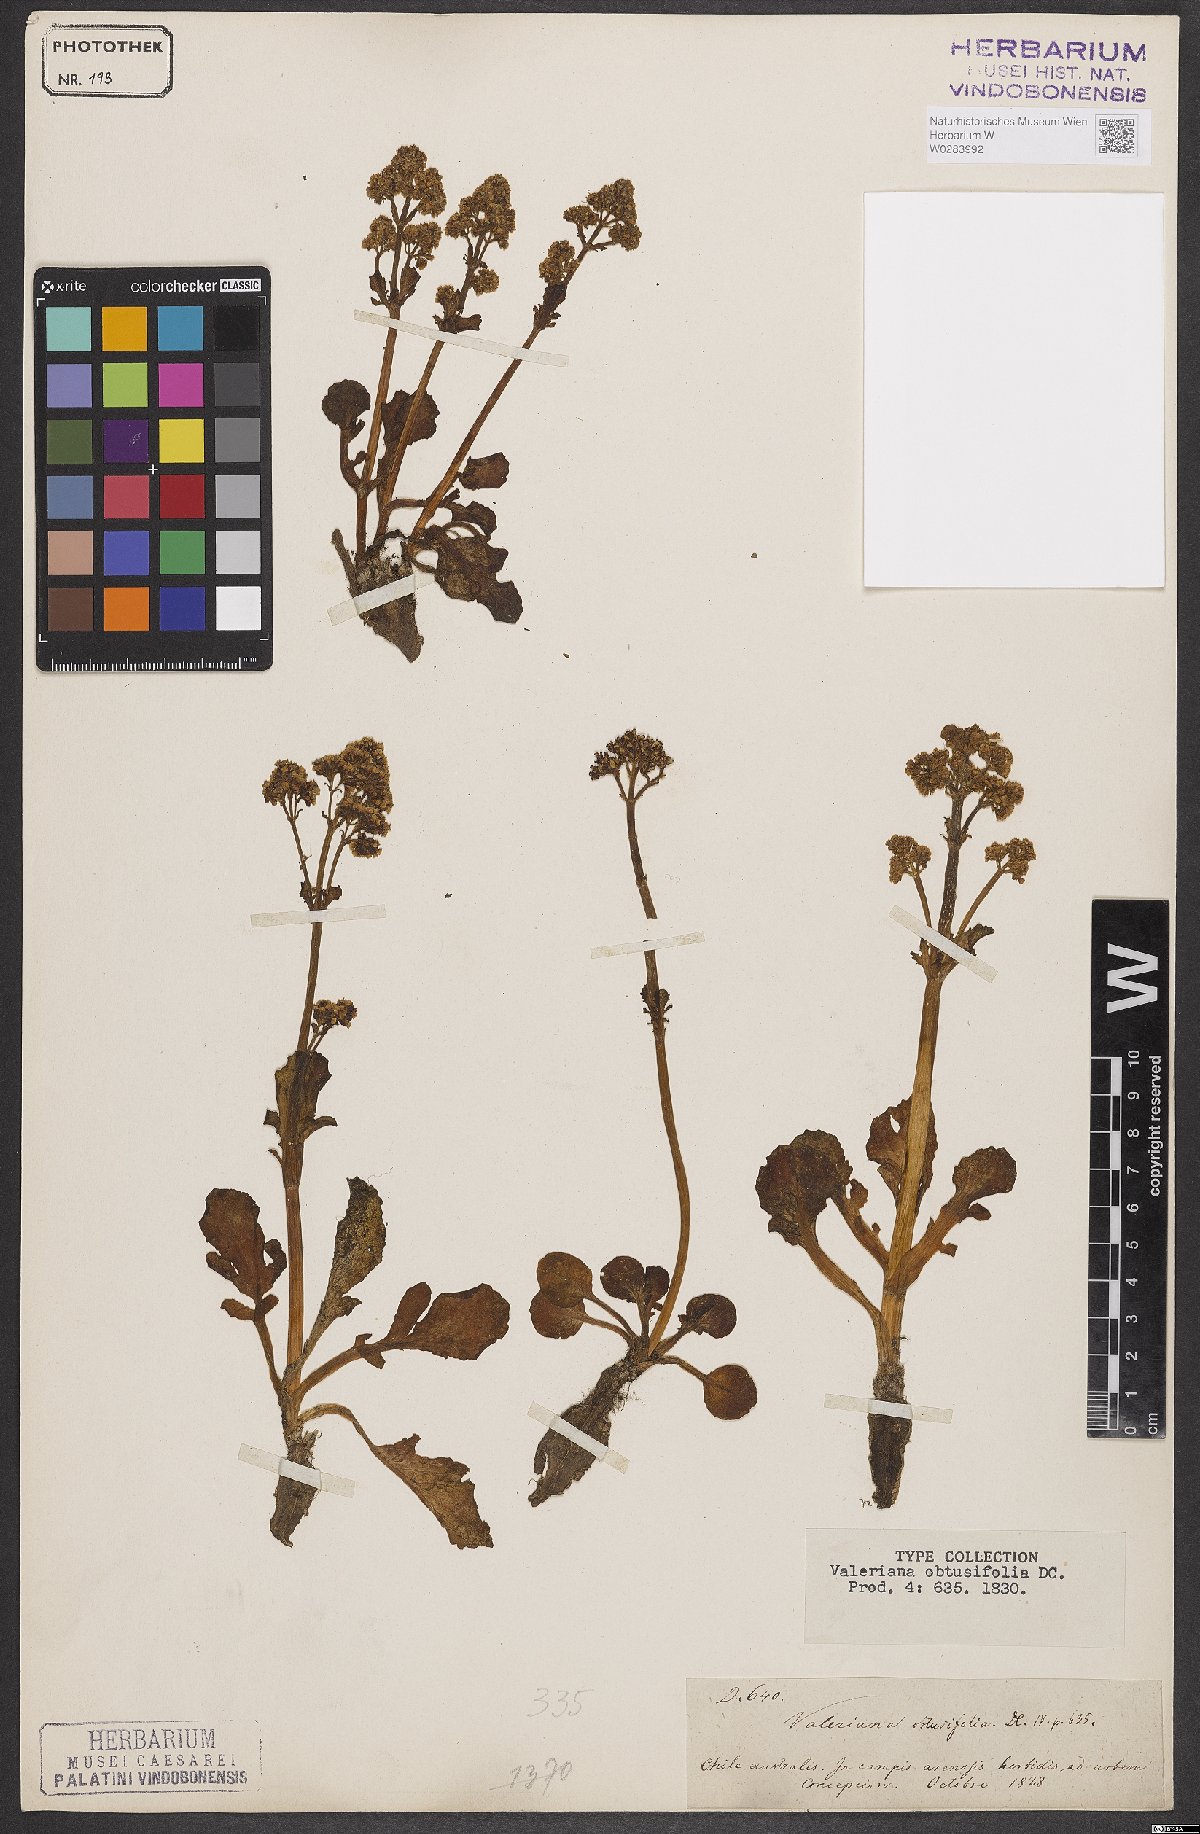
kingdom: Plantae
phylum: Tracheophyta
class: Magnoliopsida
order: Dipsacales
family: Caprifoliaceae
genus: Valeriana
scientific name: Valeriana obtusifolia
